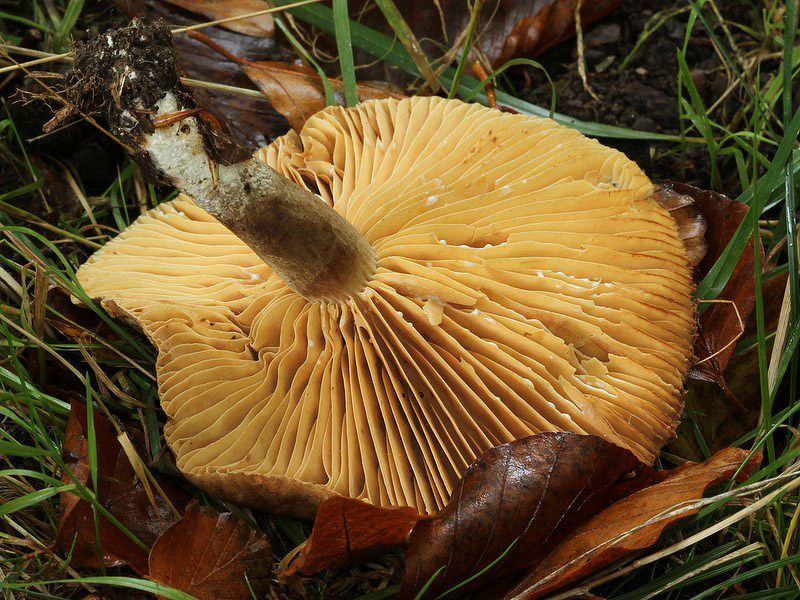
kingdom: Fungi
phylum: Basidiomycota
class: Agaricomycetes
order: Russulales
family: Russulaceae
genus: Lactarius
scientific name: Lactarius romagnesii
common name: fjernbladet mælkehat
